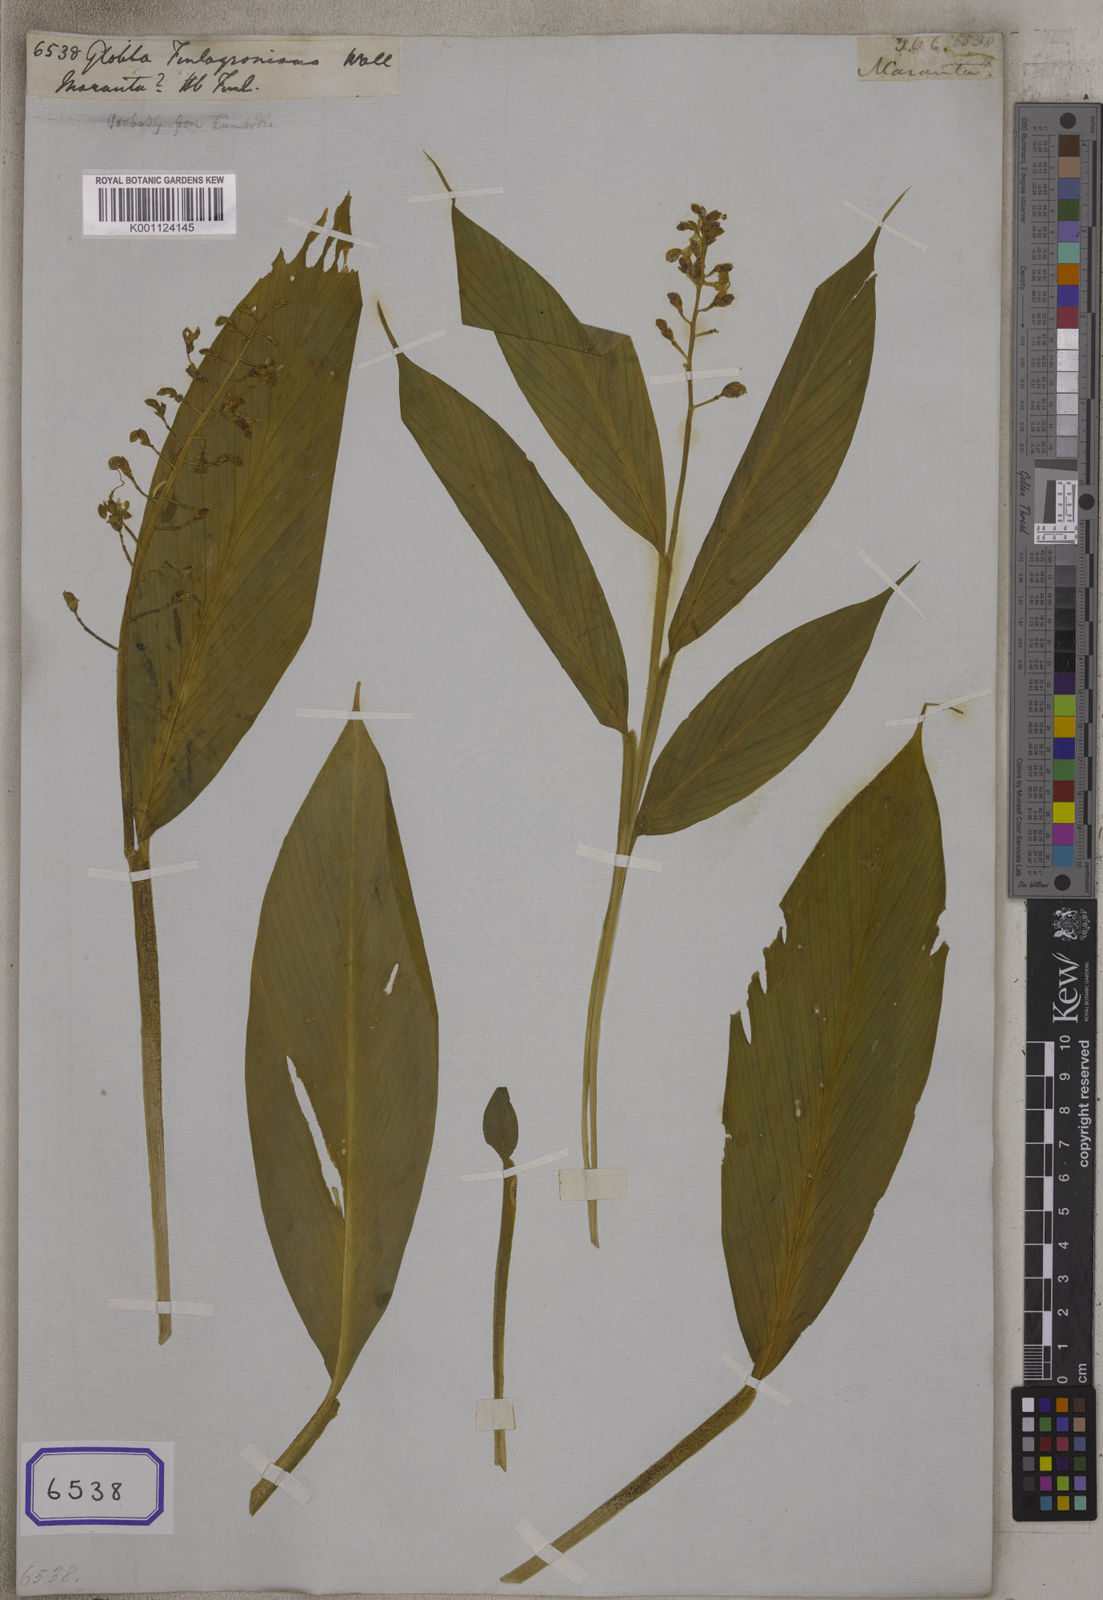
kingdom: Plantae
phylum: Tracheophyta
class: Liliopsida
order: Zingiberales
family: Zingiberaceae
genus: Globba
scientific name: Globba
